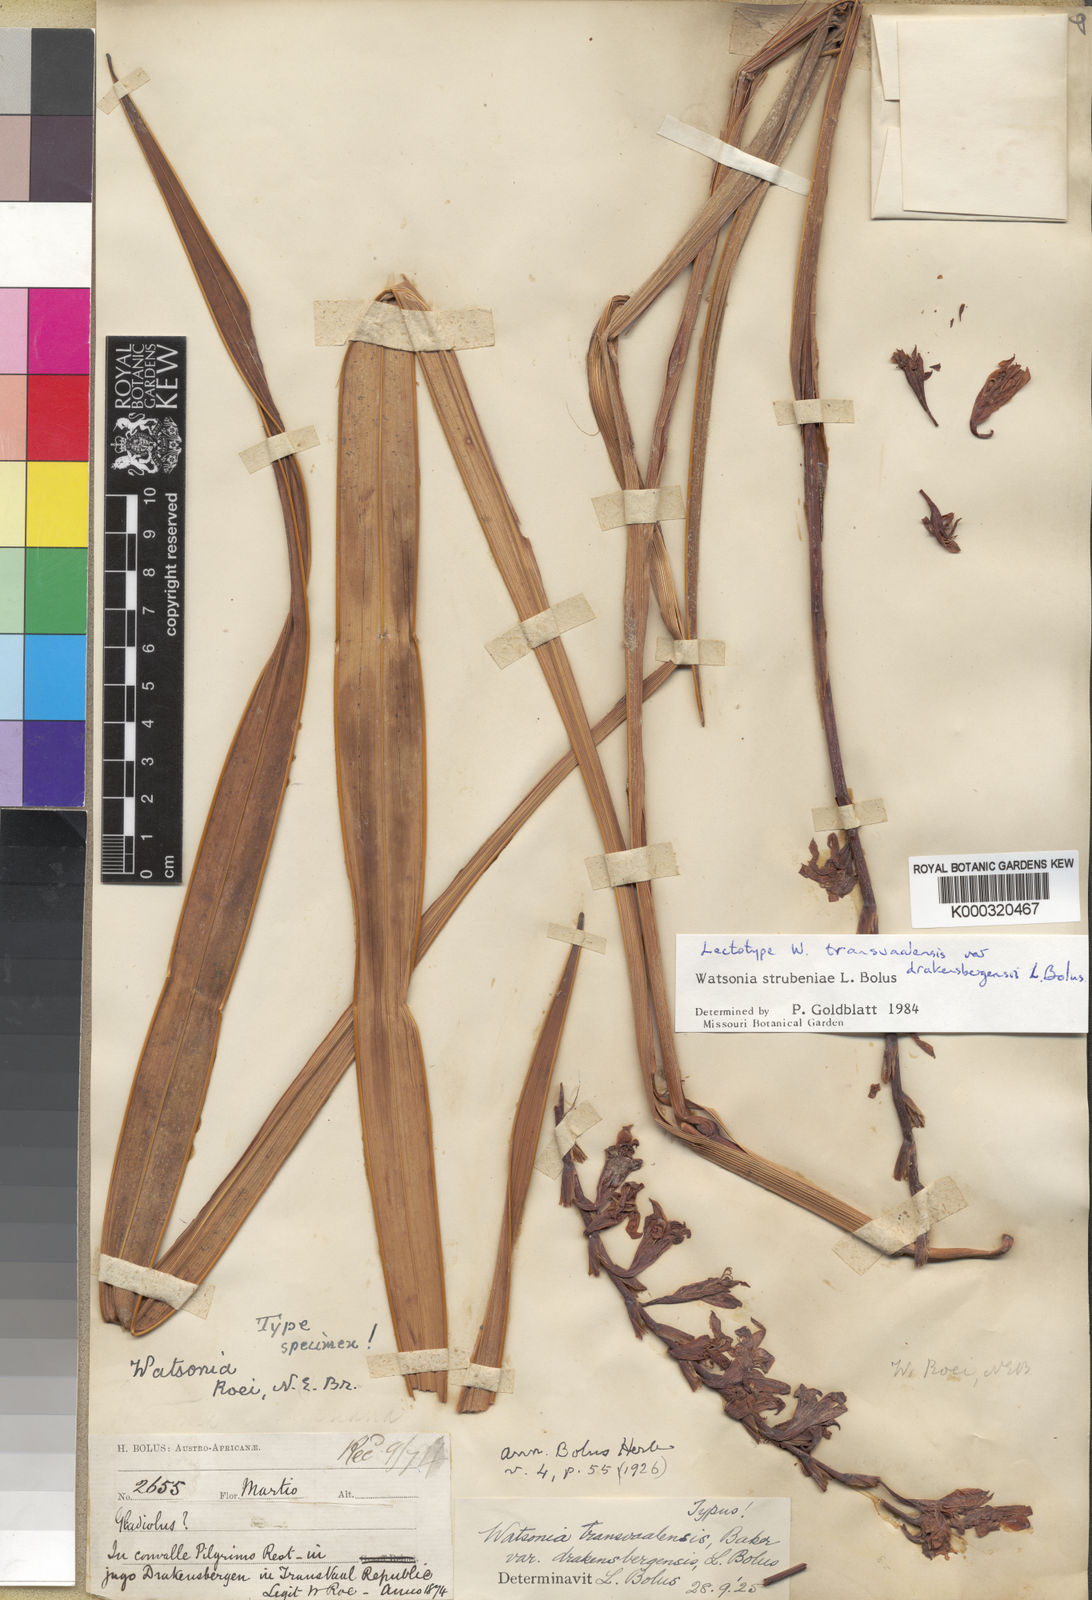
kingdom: Plantae
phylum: Tracheophyta
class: Liliopsida
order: Asparagales
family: Iridaceae
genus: Watsonia
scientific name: Watsonia strubeniae
